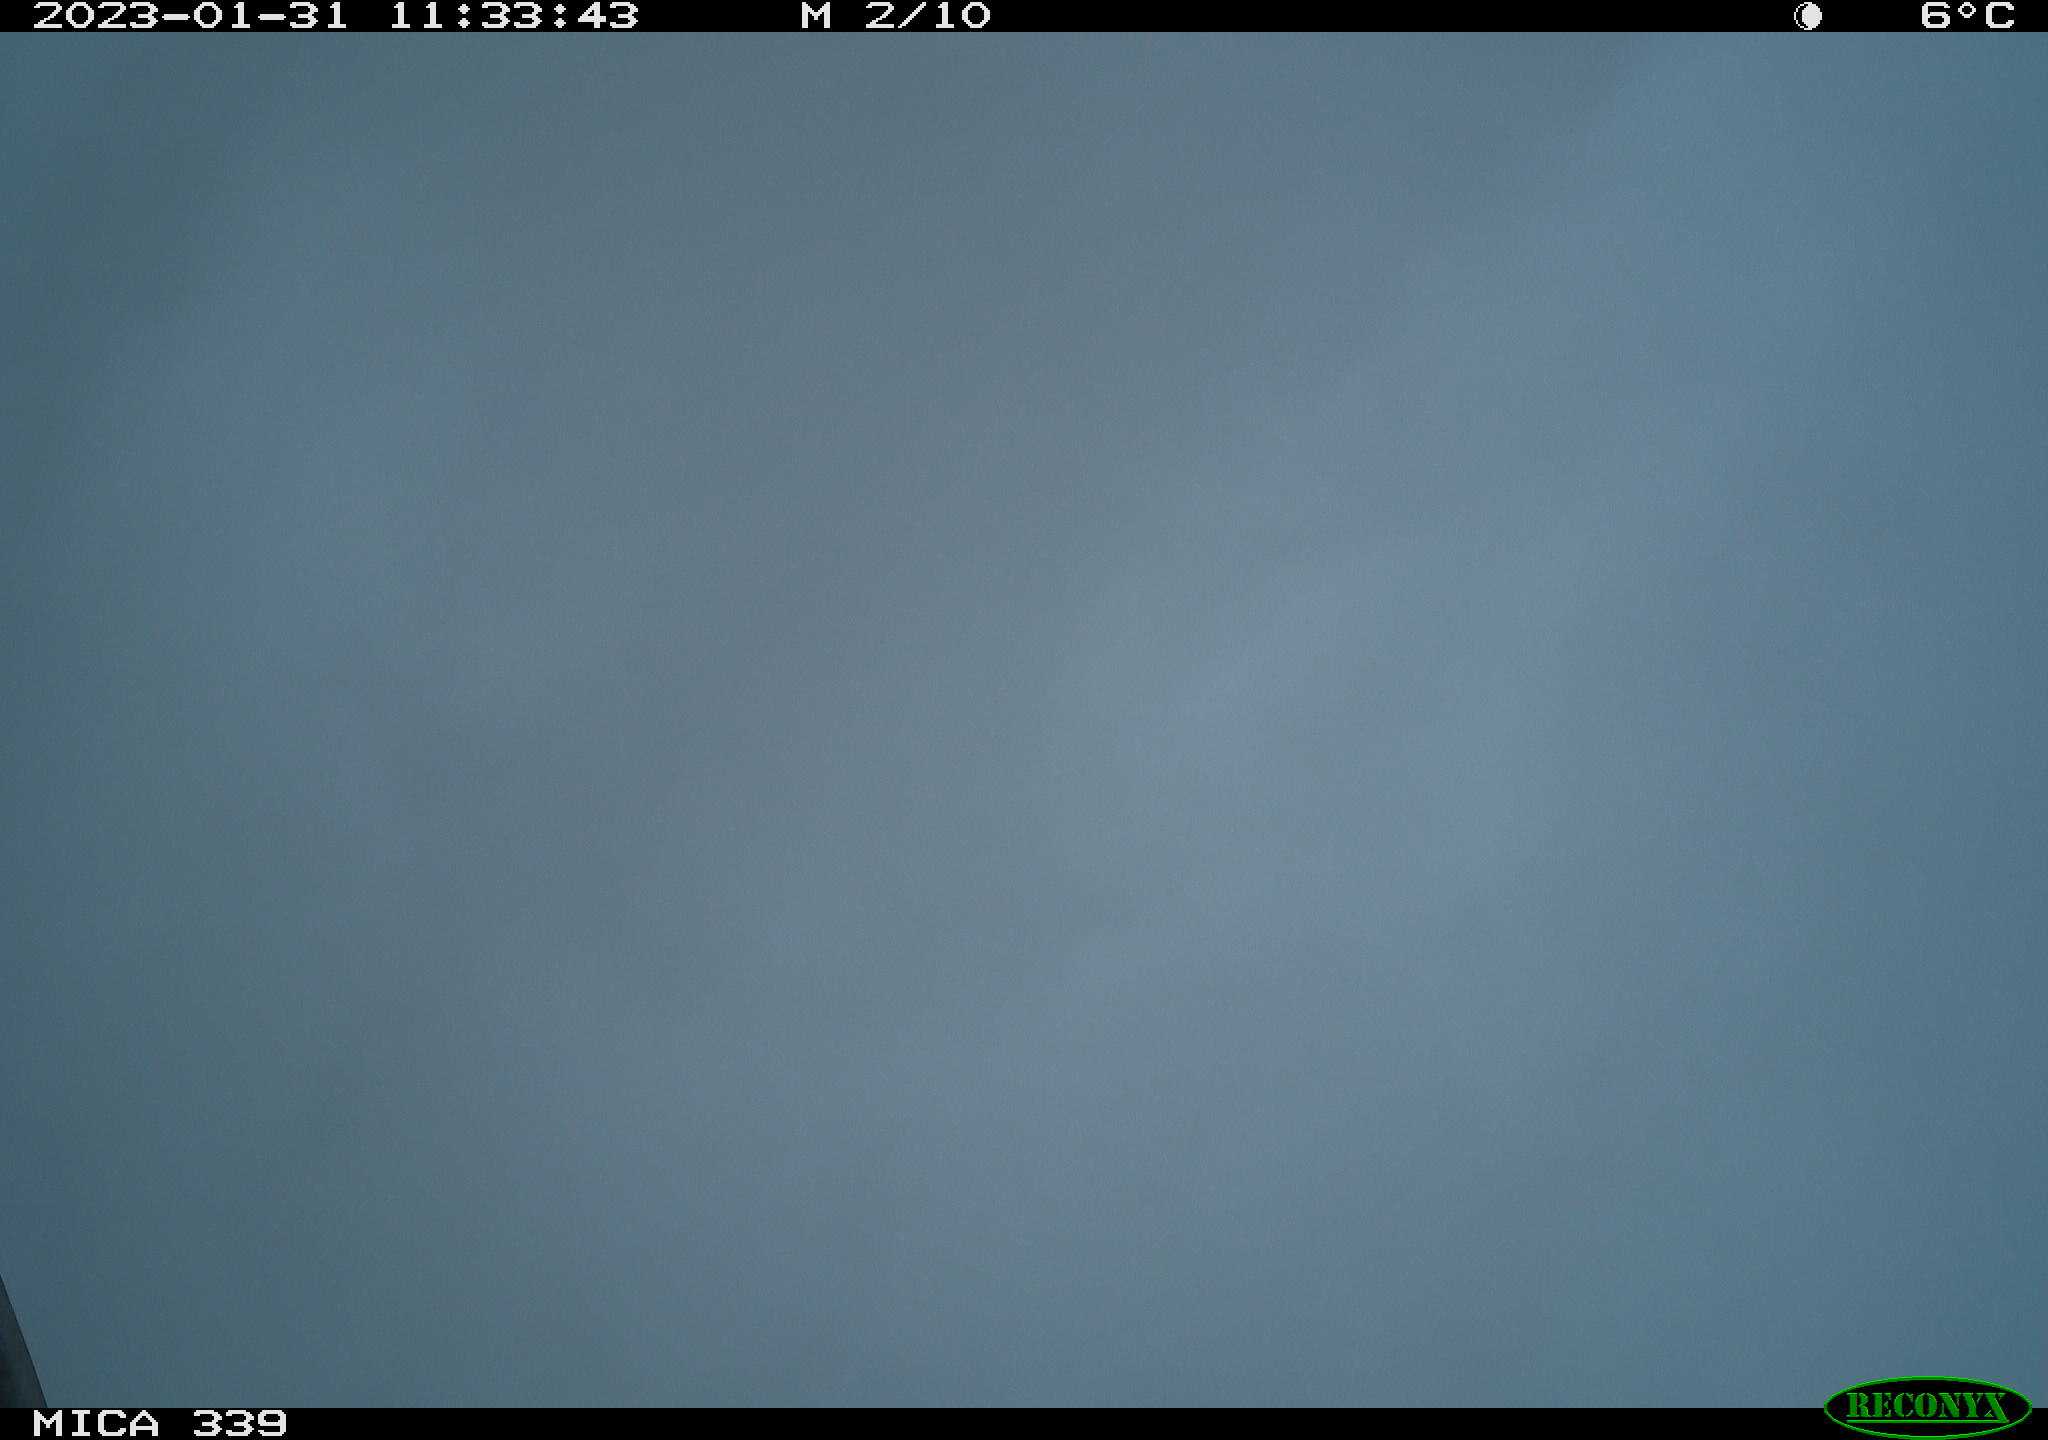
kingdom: Animalia
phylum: Chordata
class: Mammalia
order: Rodentia
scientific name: Rodentia
